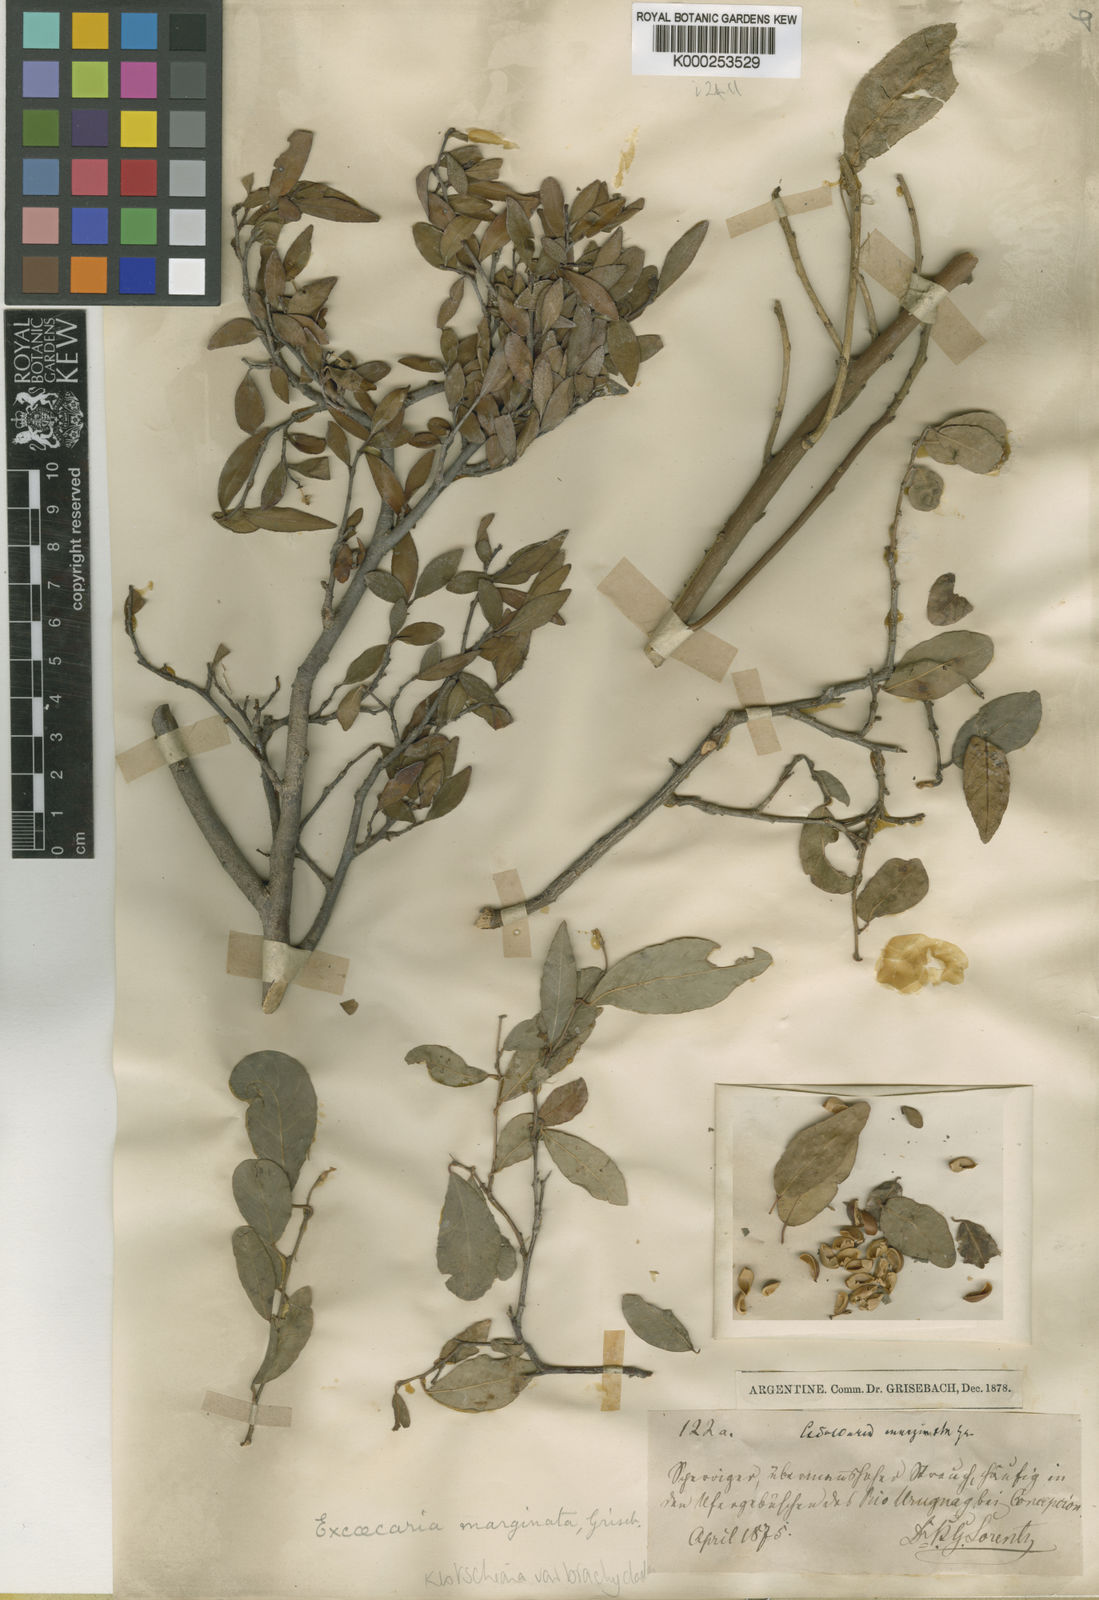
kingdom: Plantae
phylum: Tracheophyta
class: Magnoliopsida
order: Malpighiales
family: Euphorbiaceae
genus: Sebastiania
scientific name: Sebastiania
